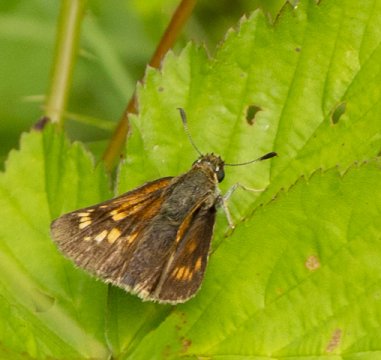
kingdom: Animalia
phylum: Arthropoda
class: Insecta
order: Lepidoptera
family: Hesperiidae
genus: Polites
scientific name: Polites
